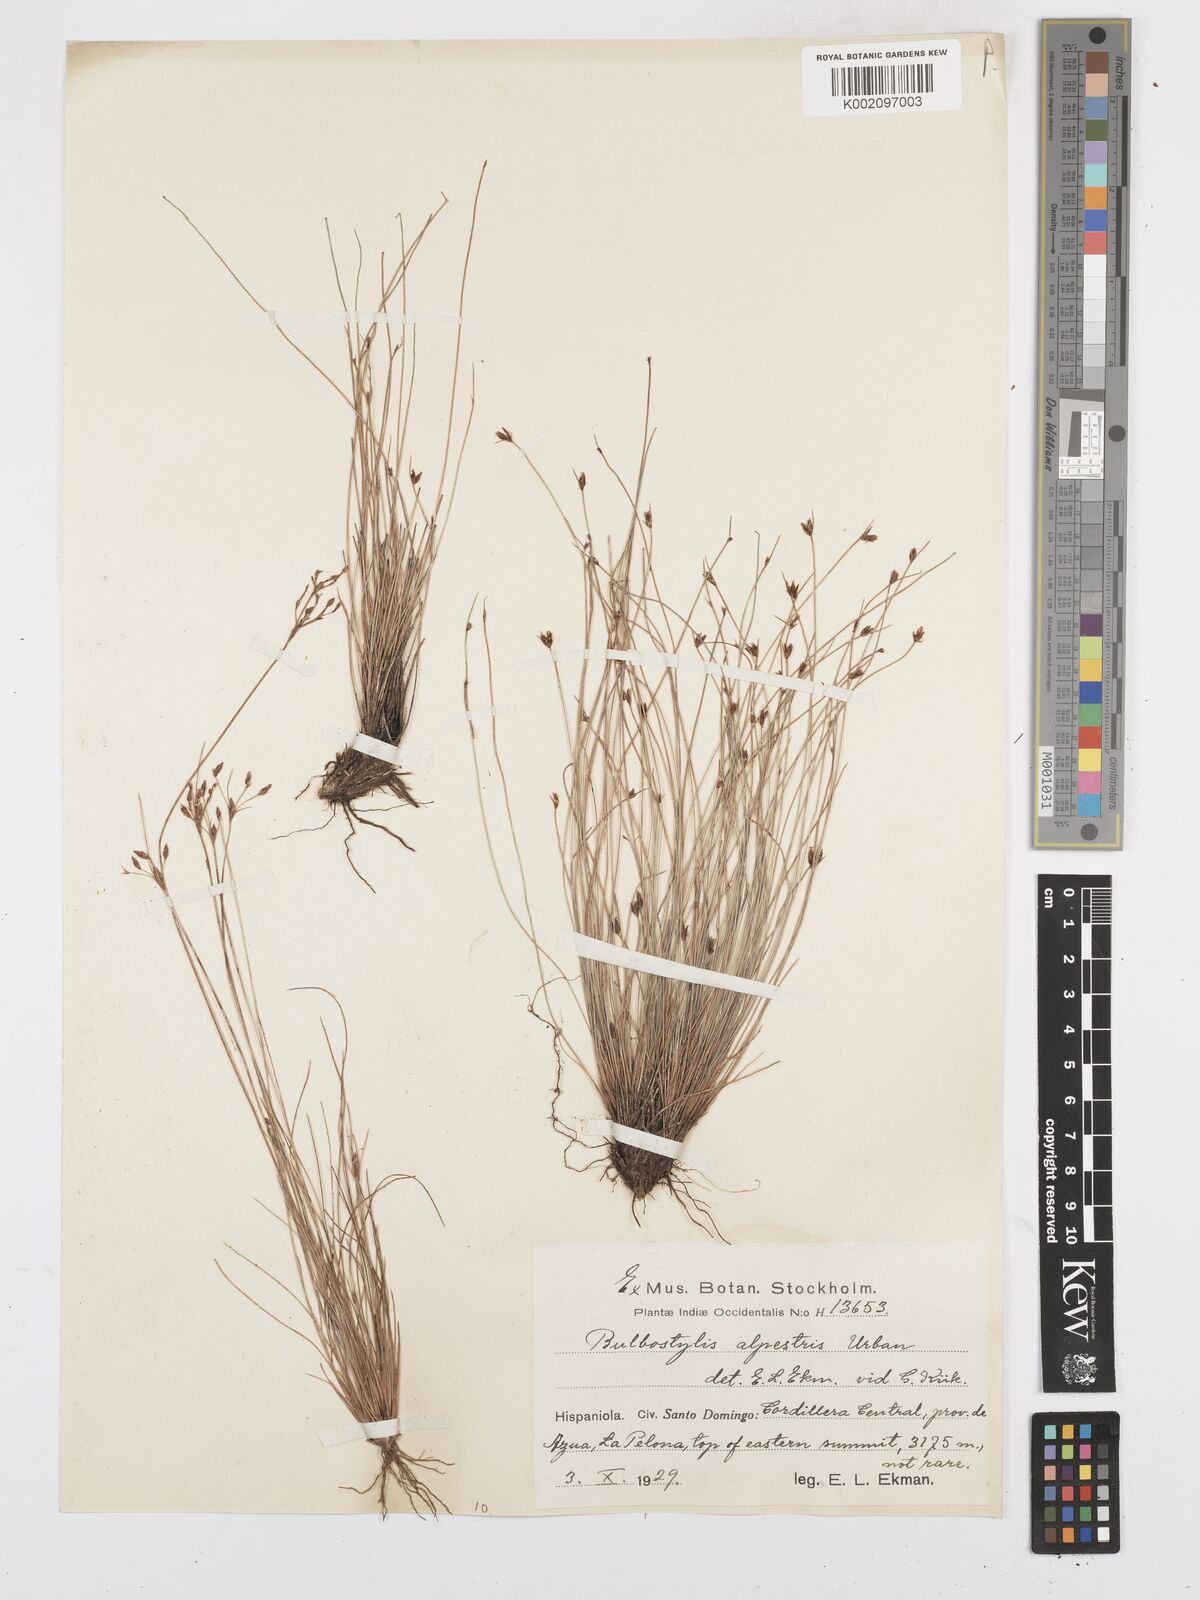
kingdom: Plantae
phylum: Tracheophyta
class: Liliopsida
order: Poales
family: Cyperaceae
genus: Bulbostylis
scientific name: Bulbostylis subaphylla
